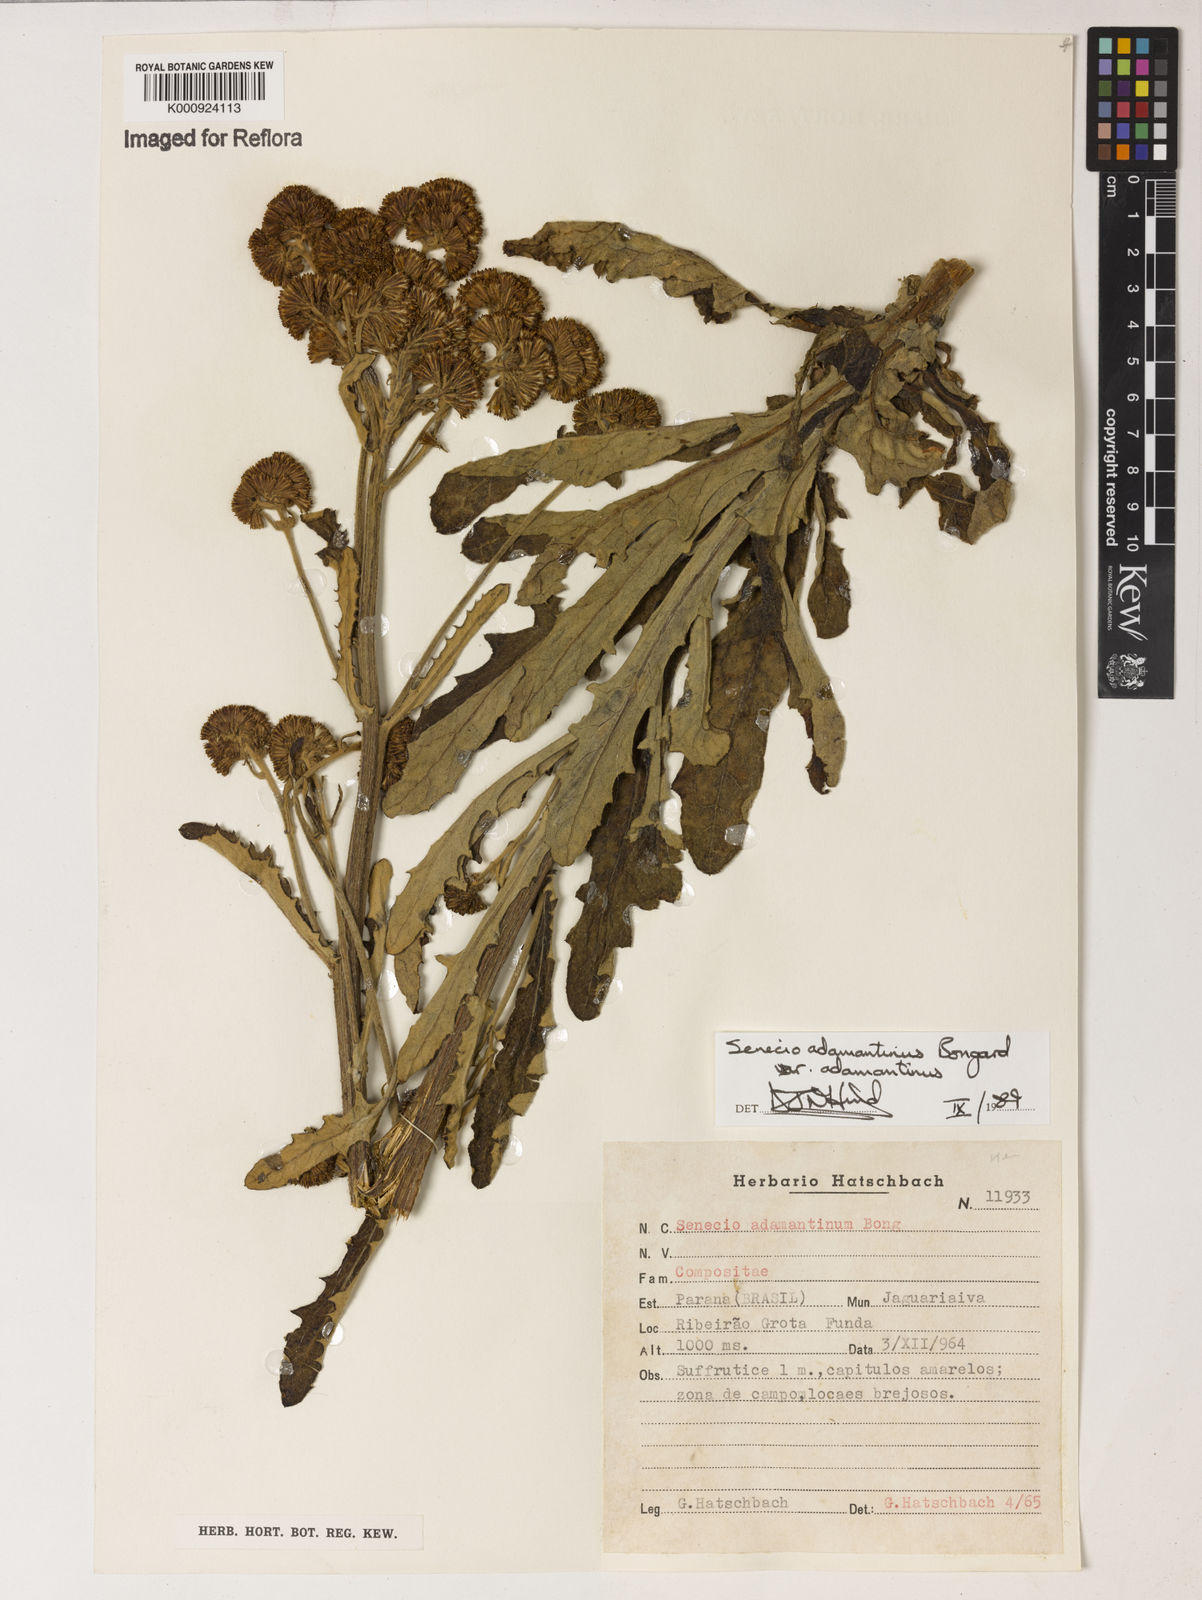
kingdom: Plantae
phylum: Tracheophyta
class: Magnoliopsida
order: Asterales
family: Asteraceae
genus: Senecio
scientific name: Senecio
